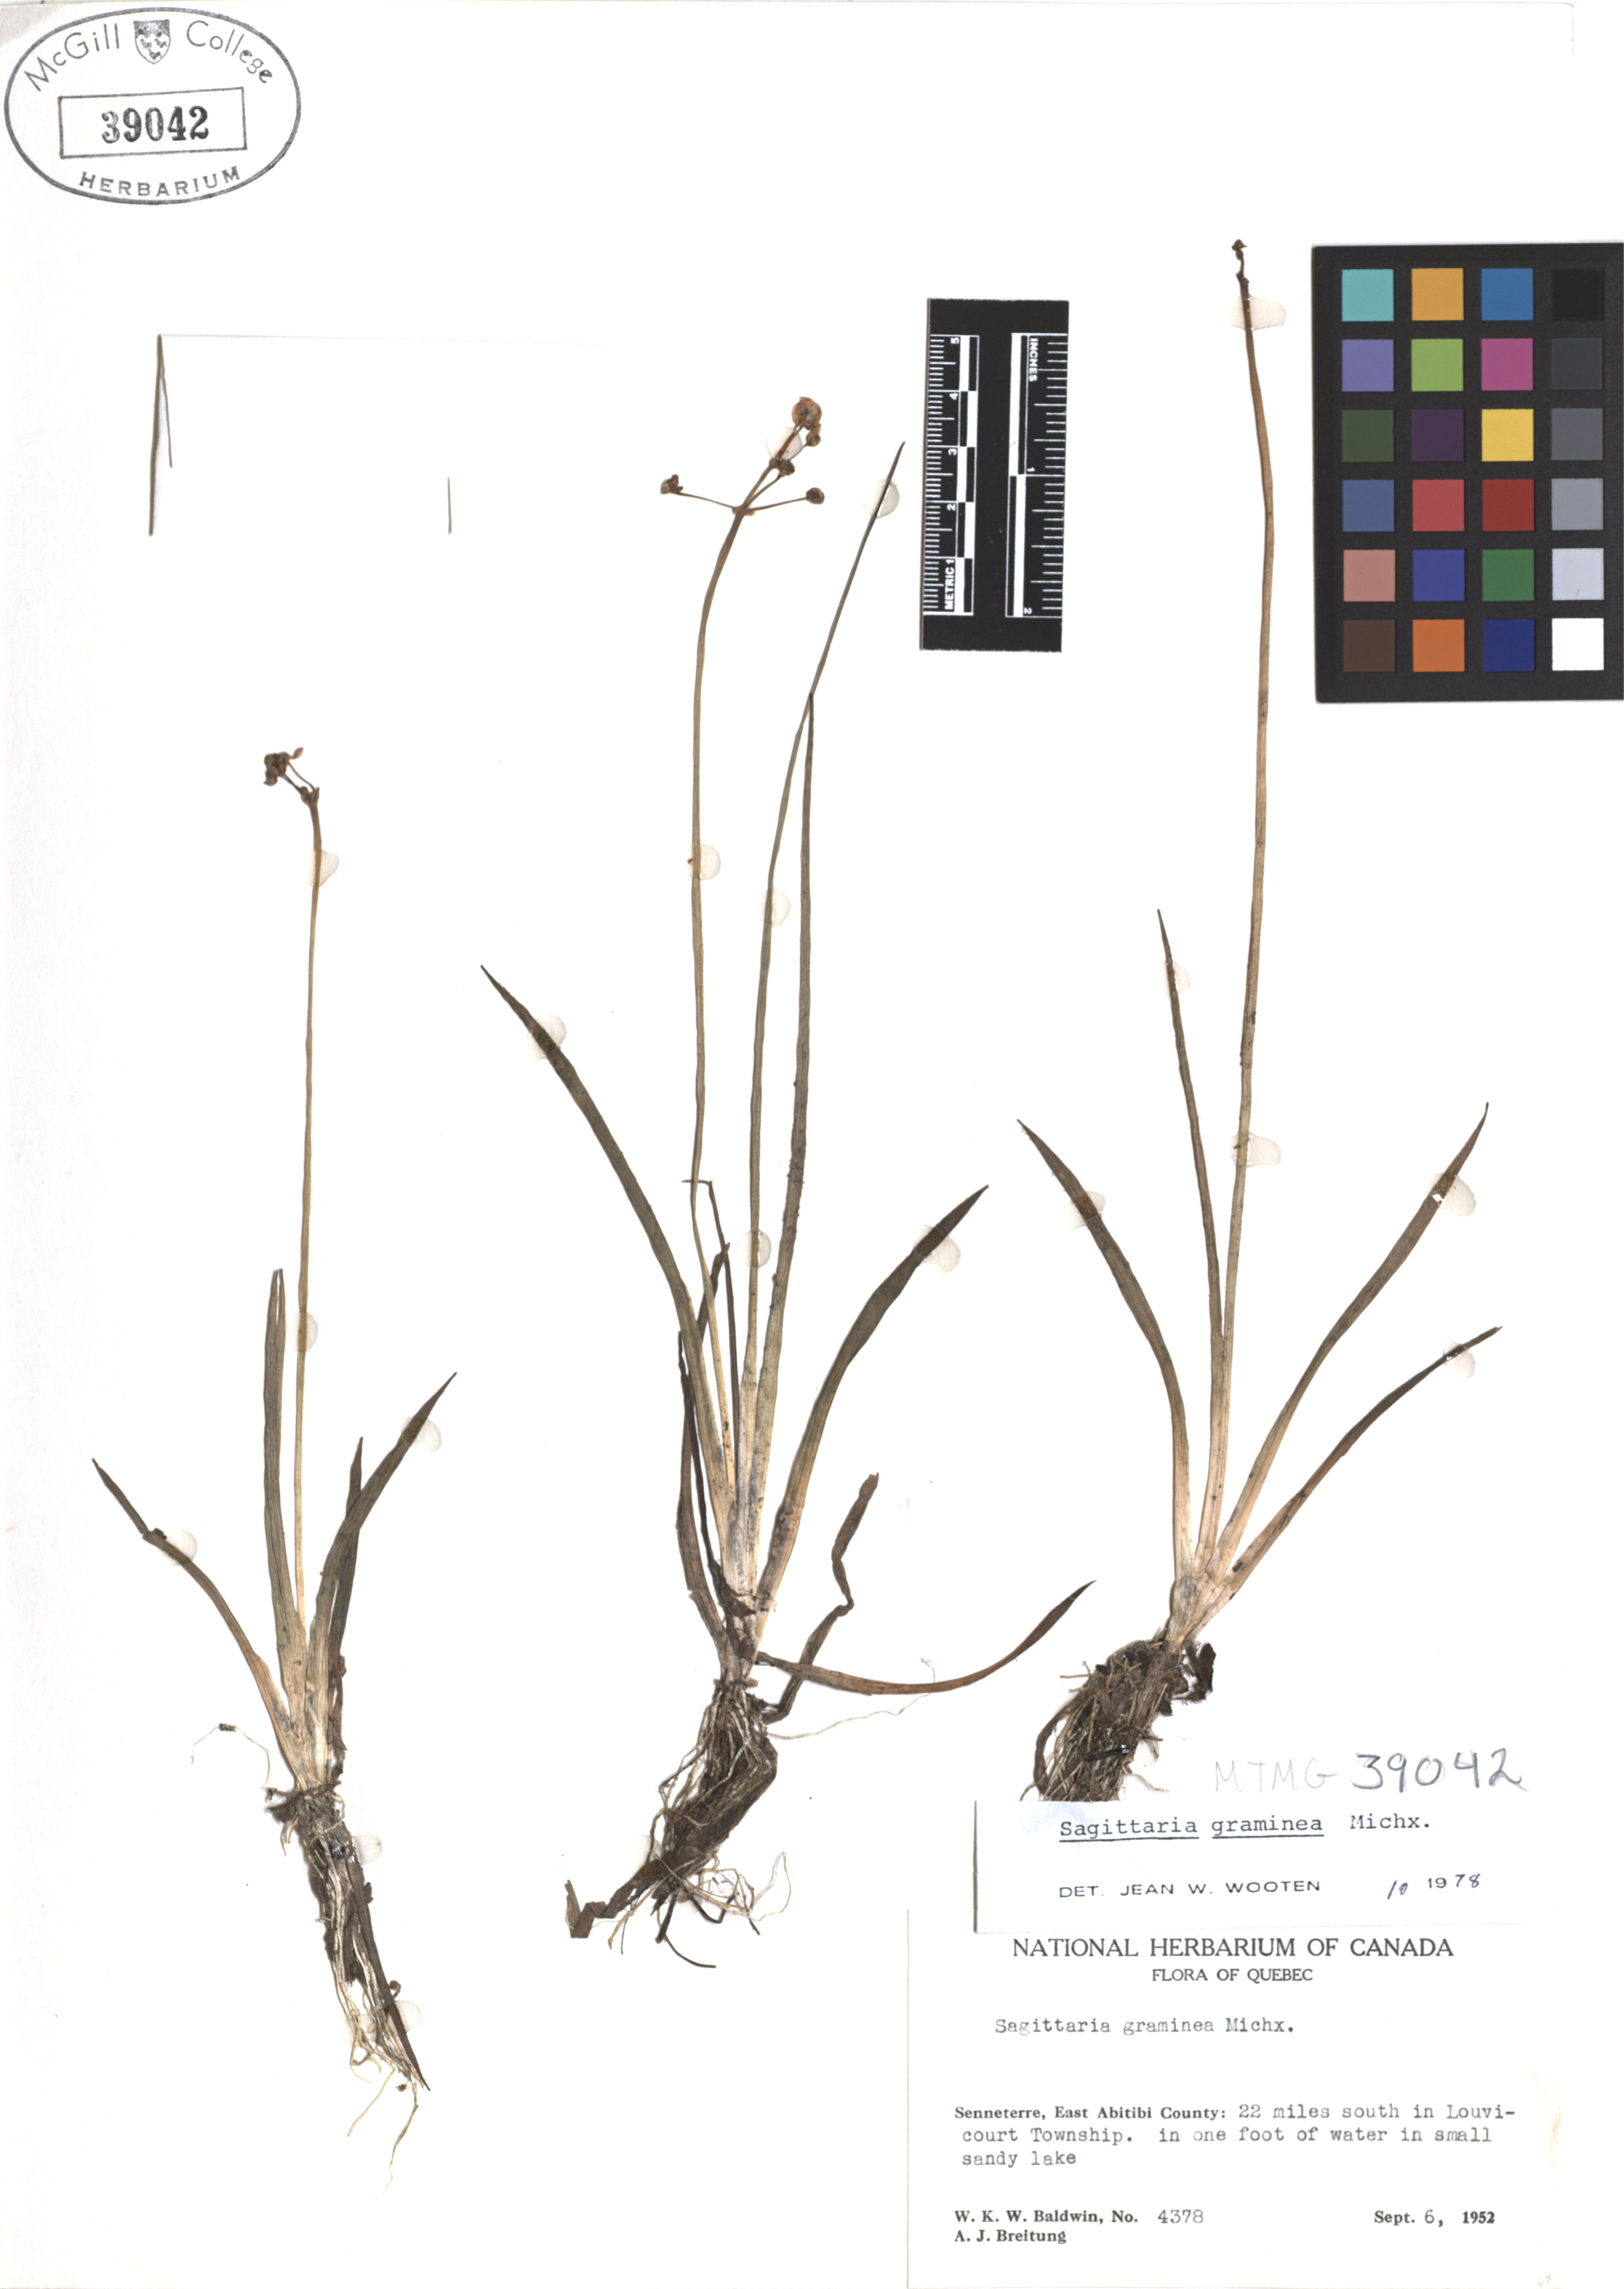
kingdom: Plantae
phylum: Tracheophyta
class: Liliopsida
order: Alismatales
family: Alismataceae
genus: Sagittaria
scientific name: Sagittaria graminea
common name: Grass-leaved arrowhead
